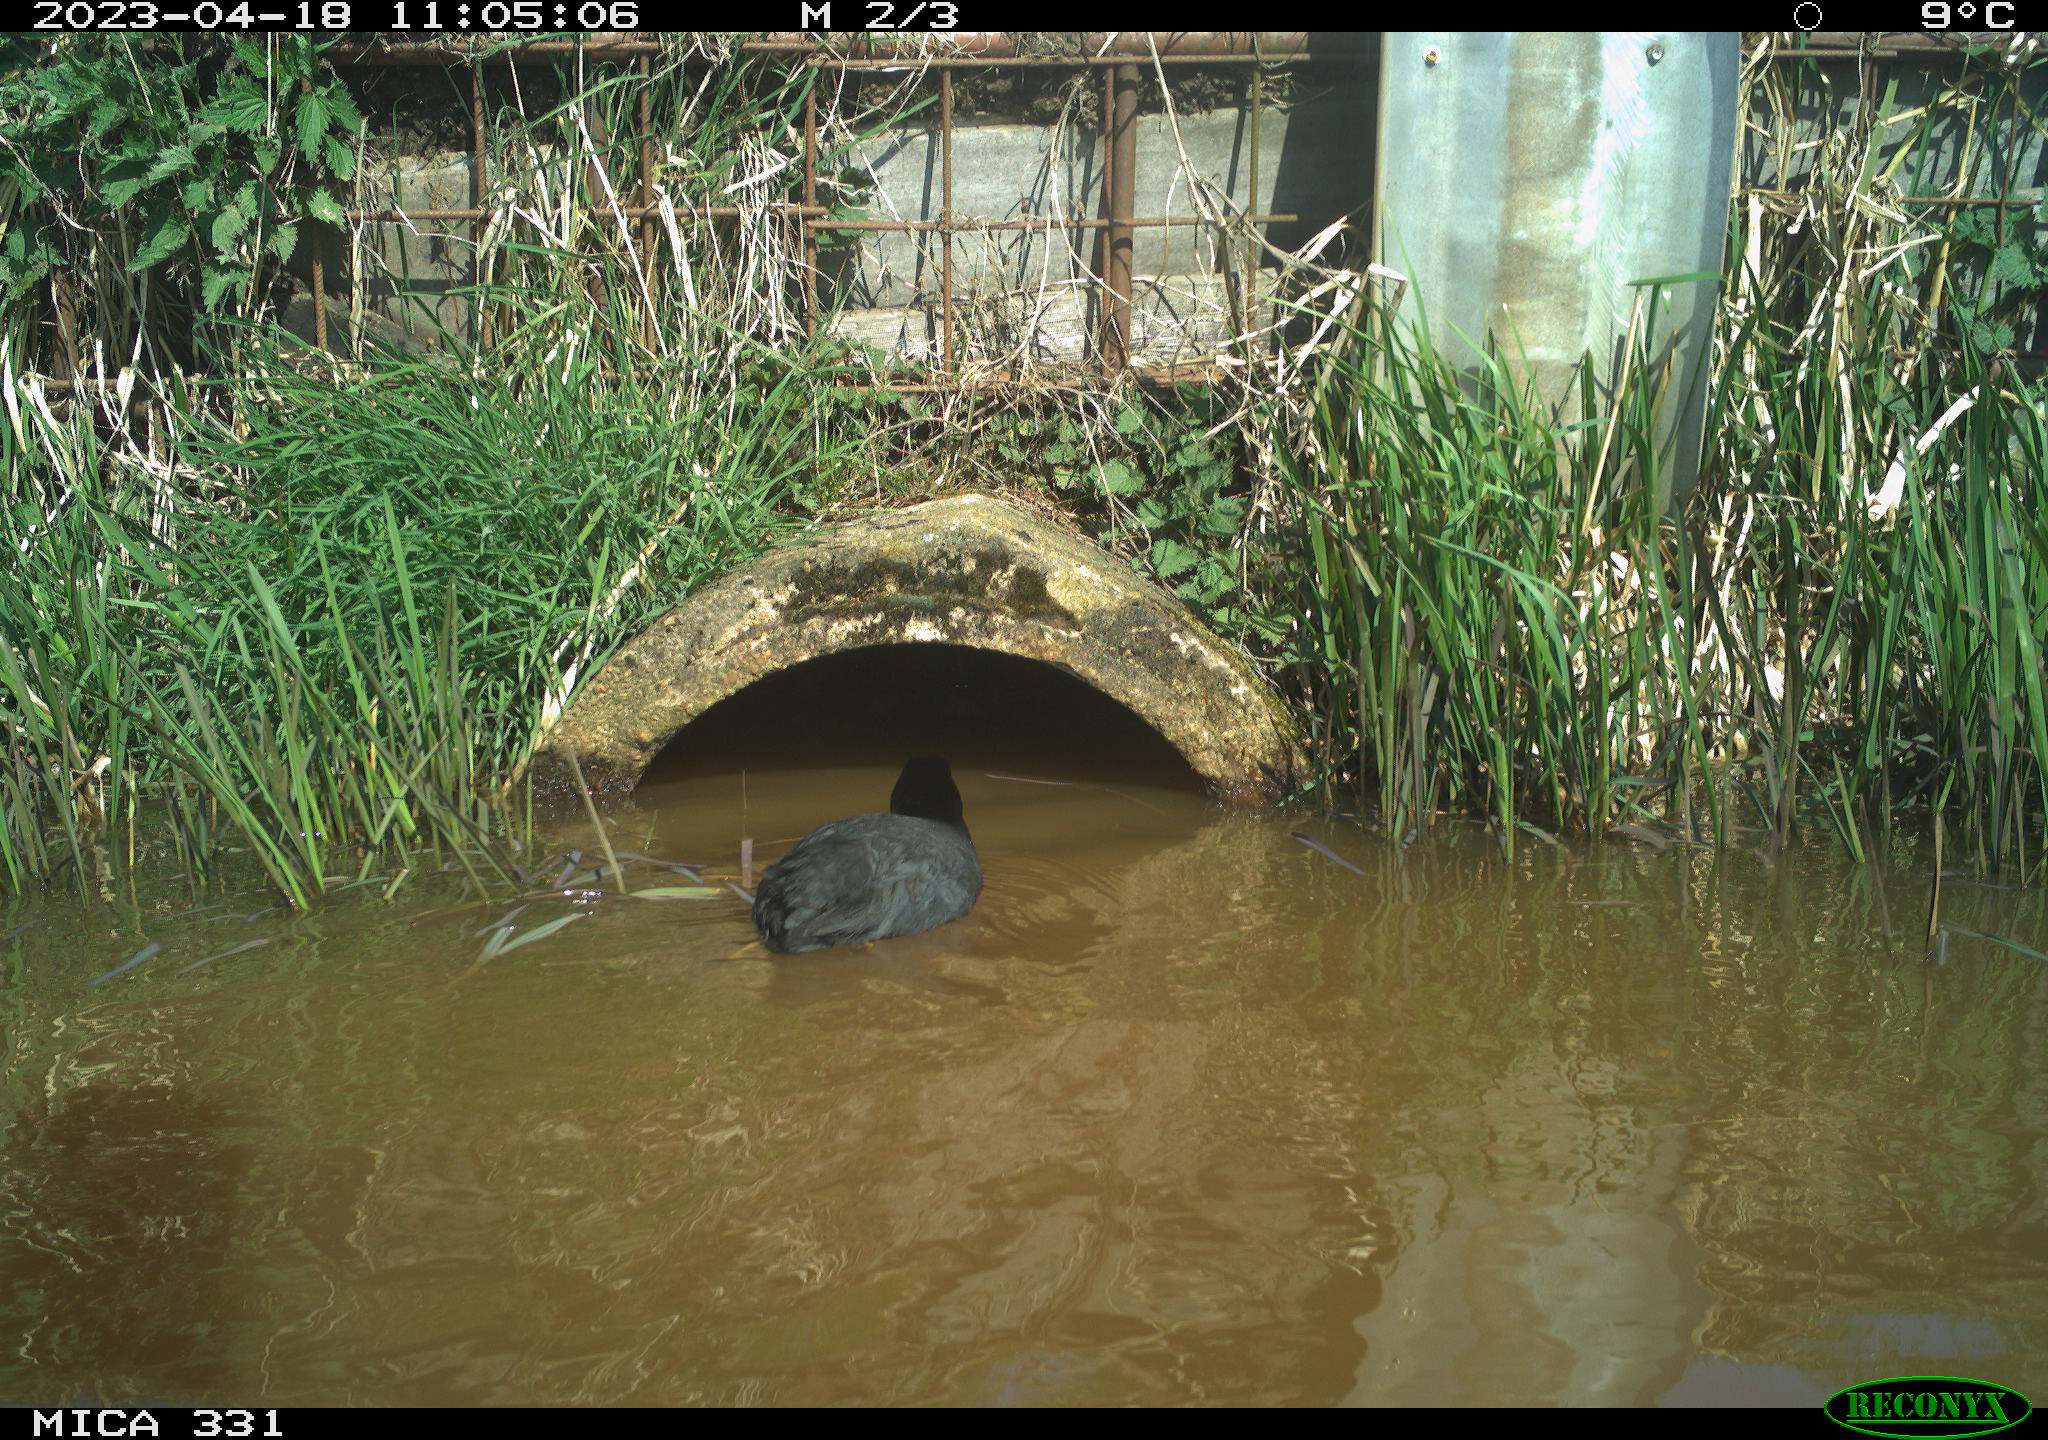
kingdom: Animalia
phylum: Chordata
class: Aves
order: Gruiformes
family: Rallidae
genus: Fulica
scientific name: Fulica atra
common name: Eurasian coot
